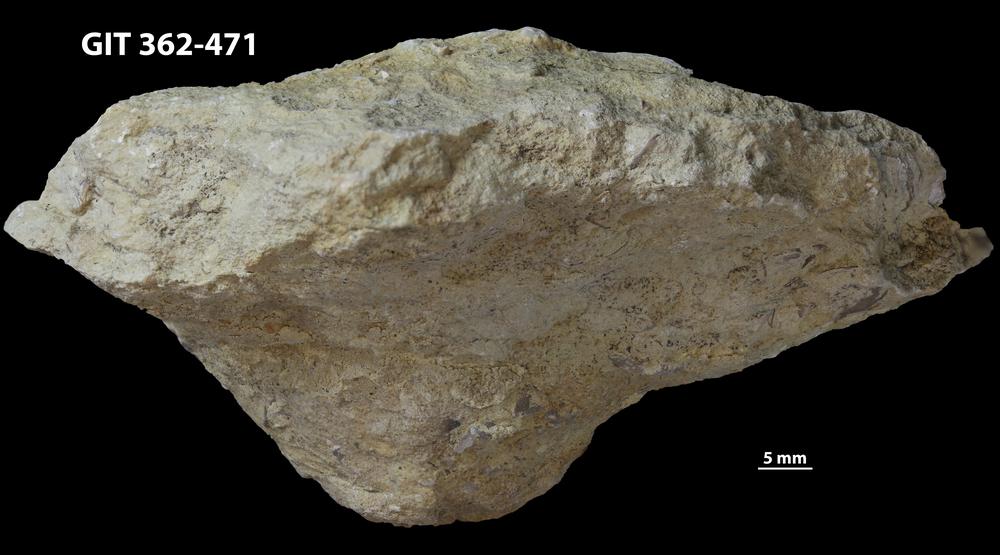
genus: Conichnus
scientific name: Conichnus
